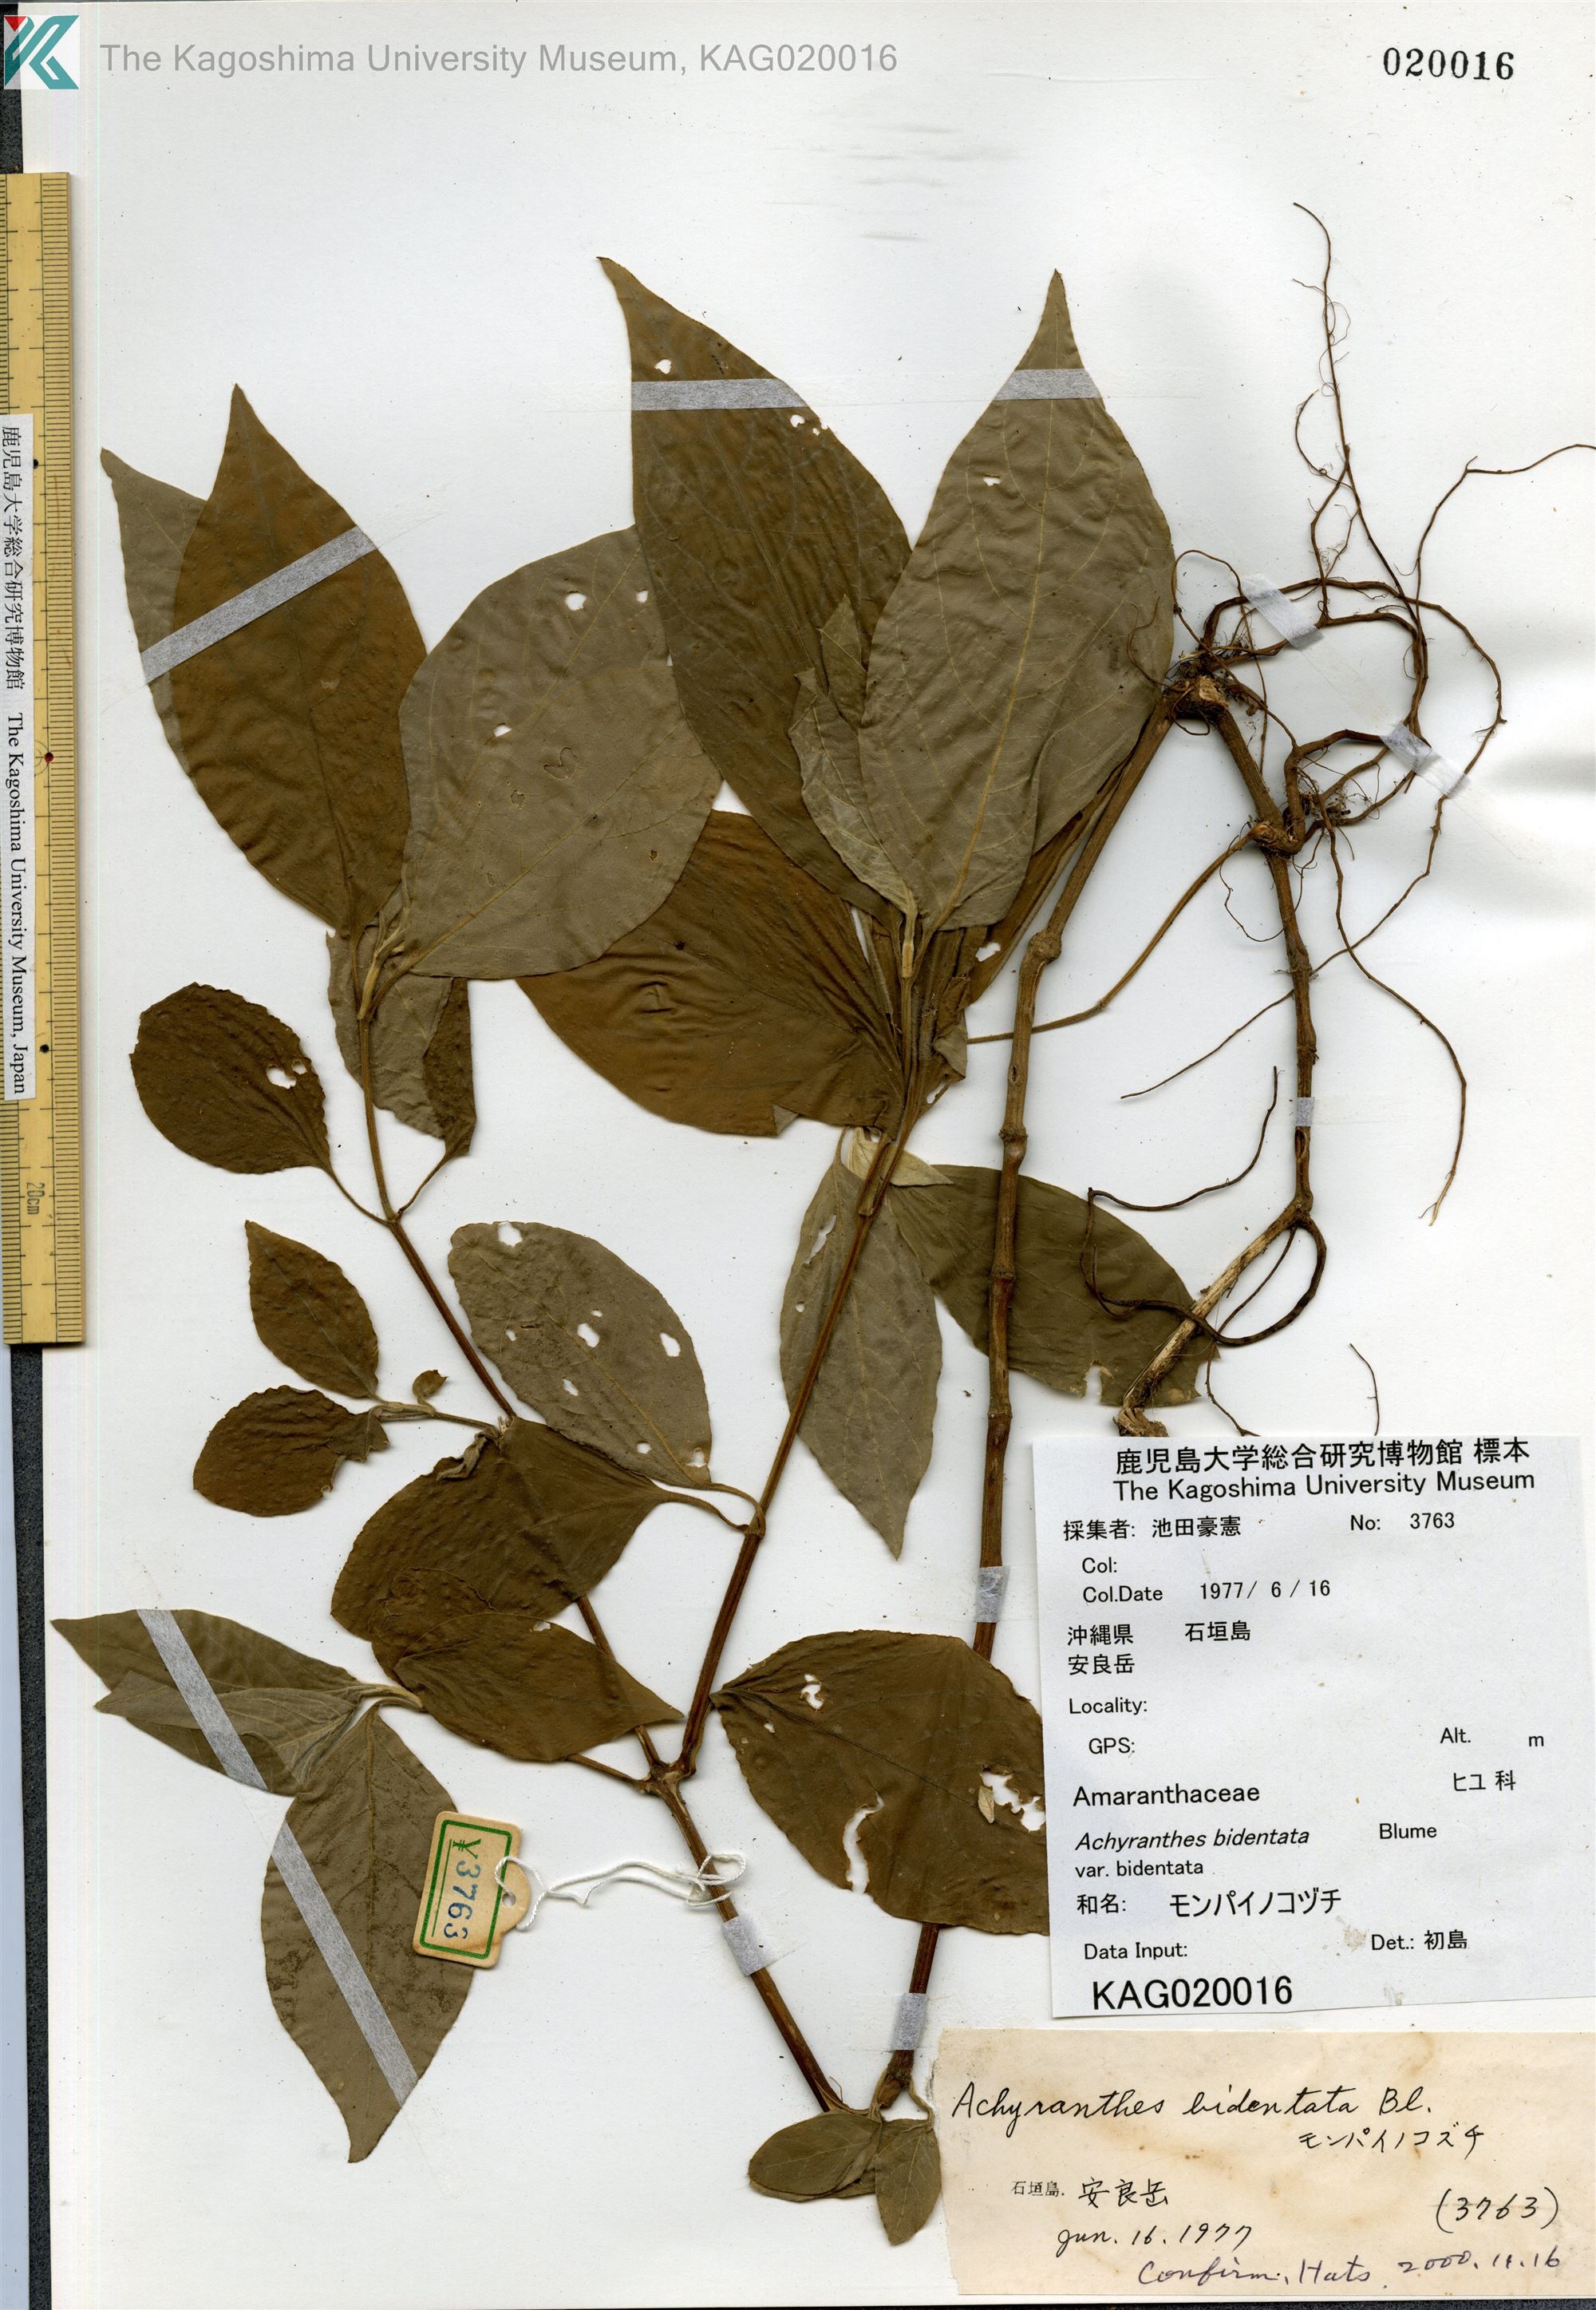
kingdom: Plantae
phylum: Tracheophyta
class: Magnoliopsida
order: Caryophyllales
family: Amaranthaceae
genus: Achyranthes
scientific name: Achyranthes bidentata
